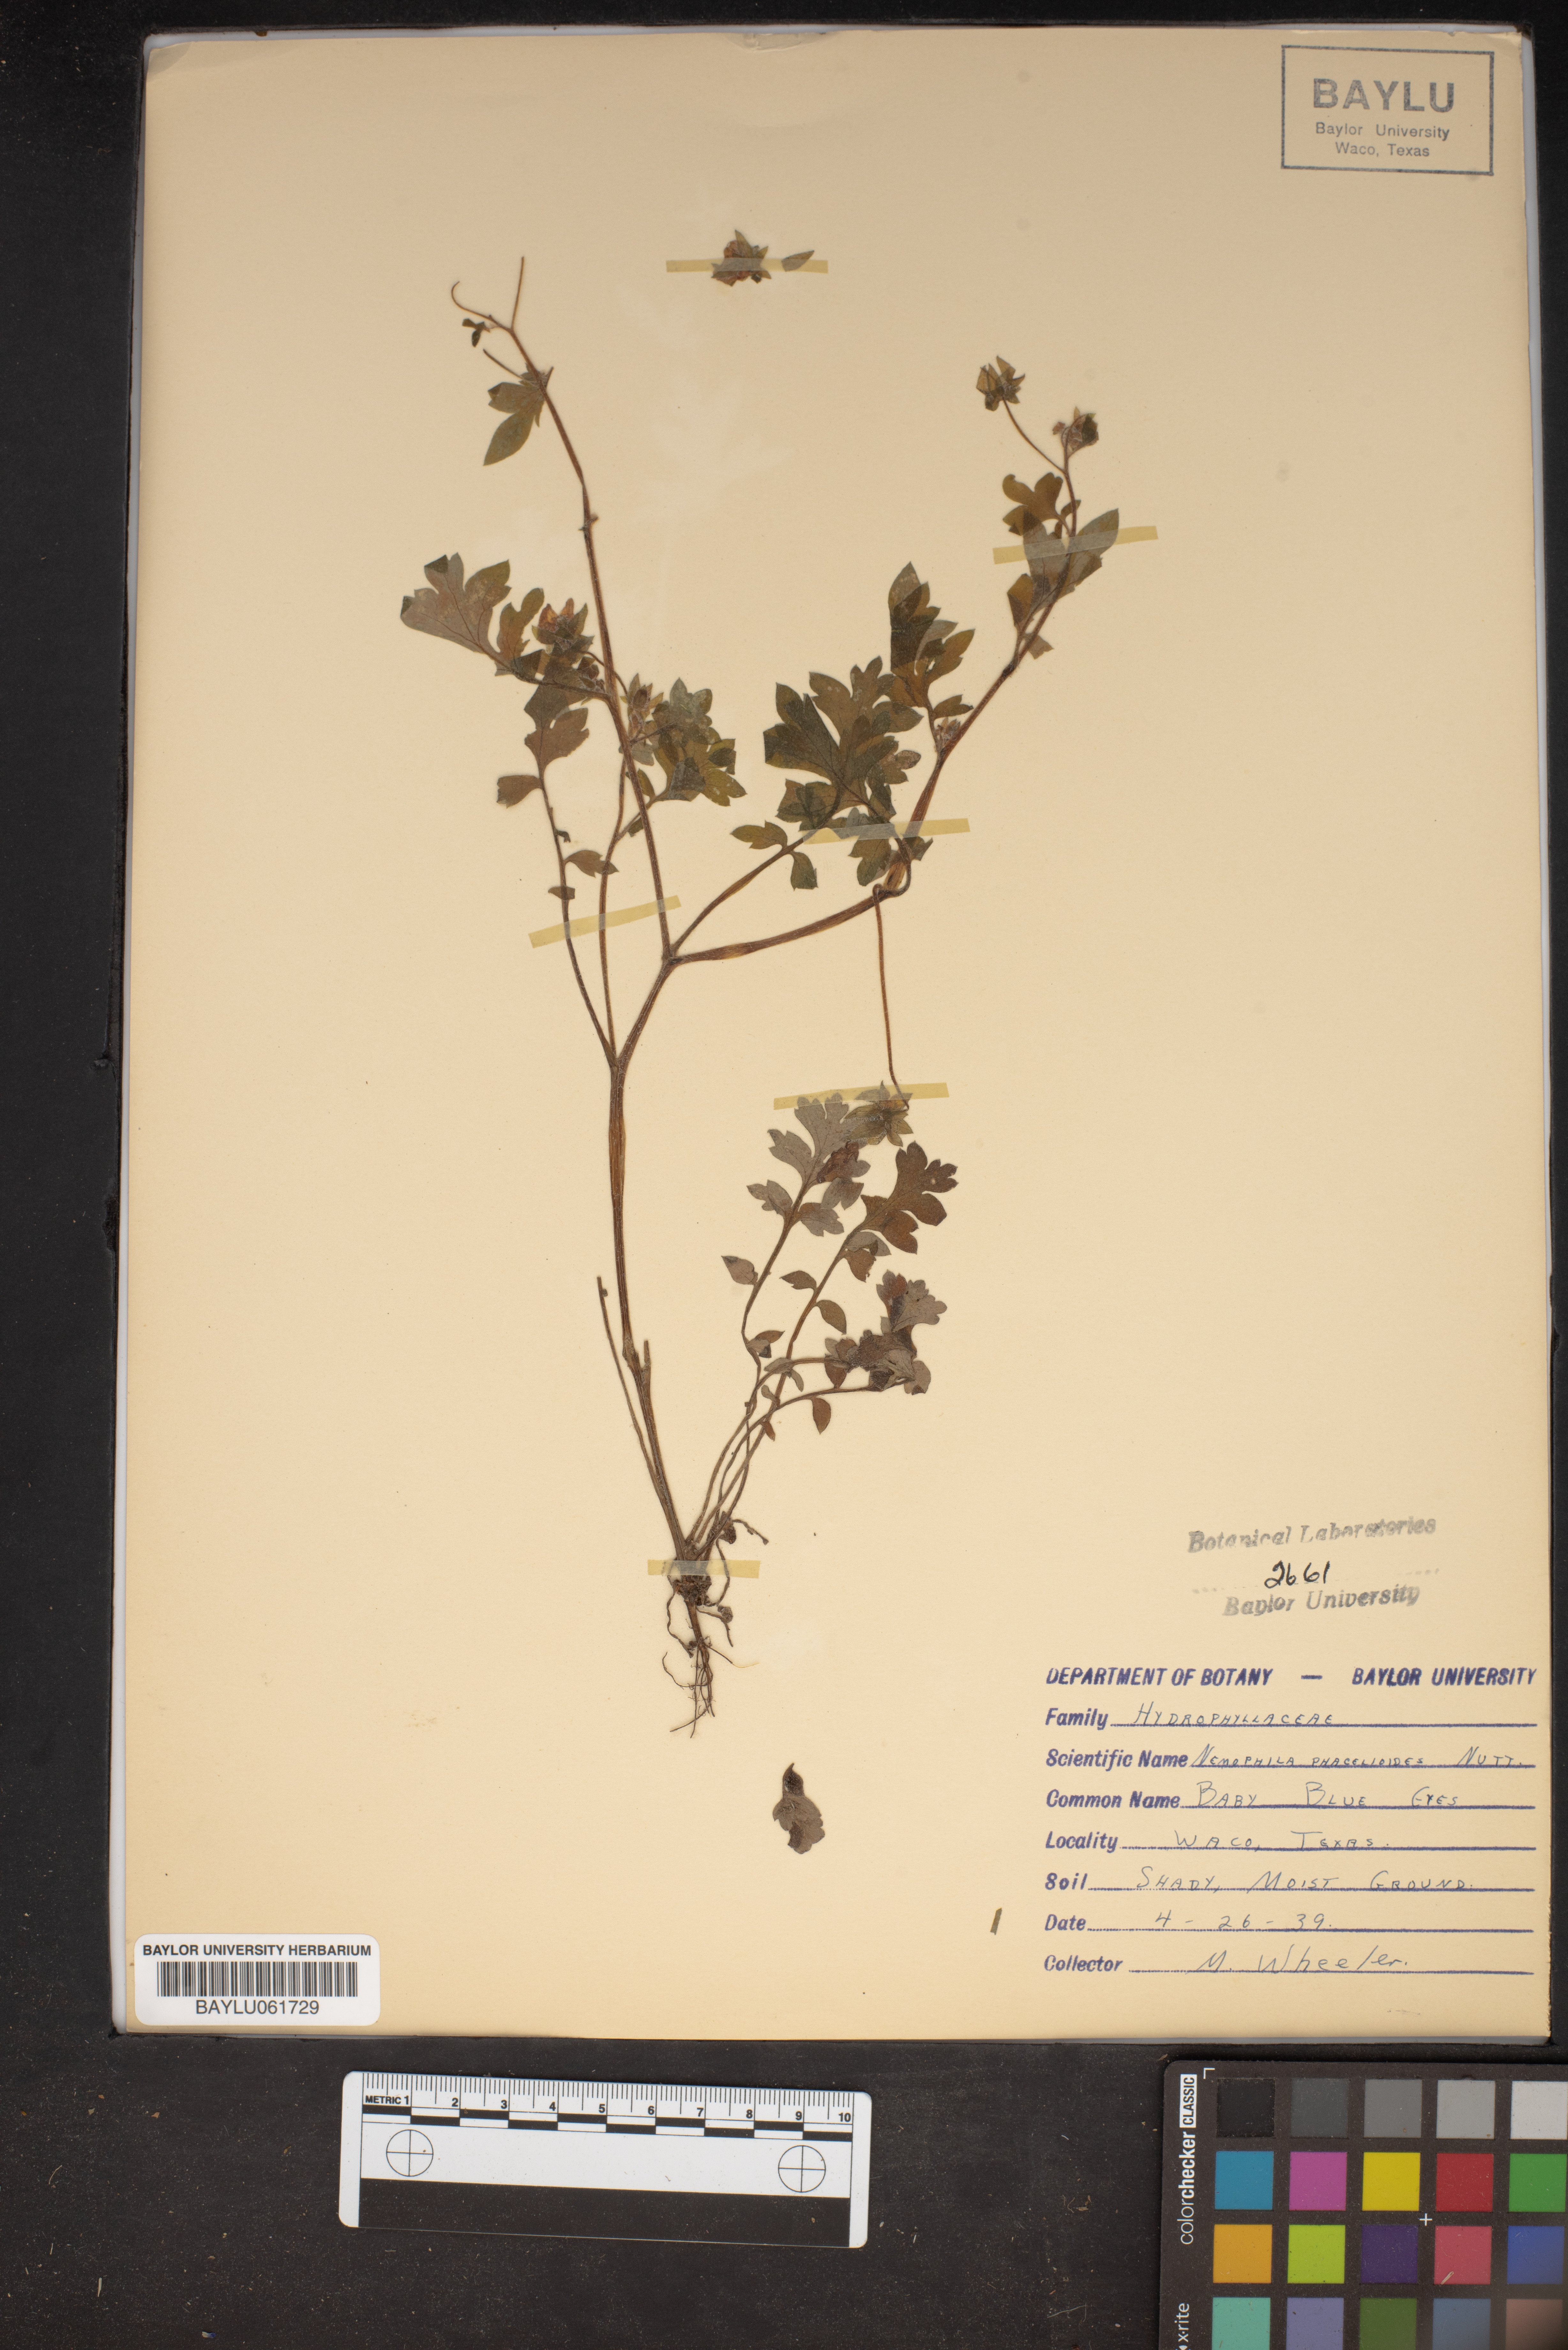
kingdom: Plantae
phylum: Tracheophyta
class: Magnoliopsida
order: Boraginales
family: Hydrophyllaceae
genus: Nemophila
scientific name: Nemophila phacelioides
